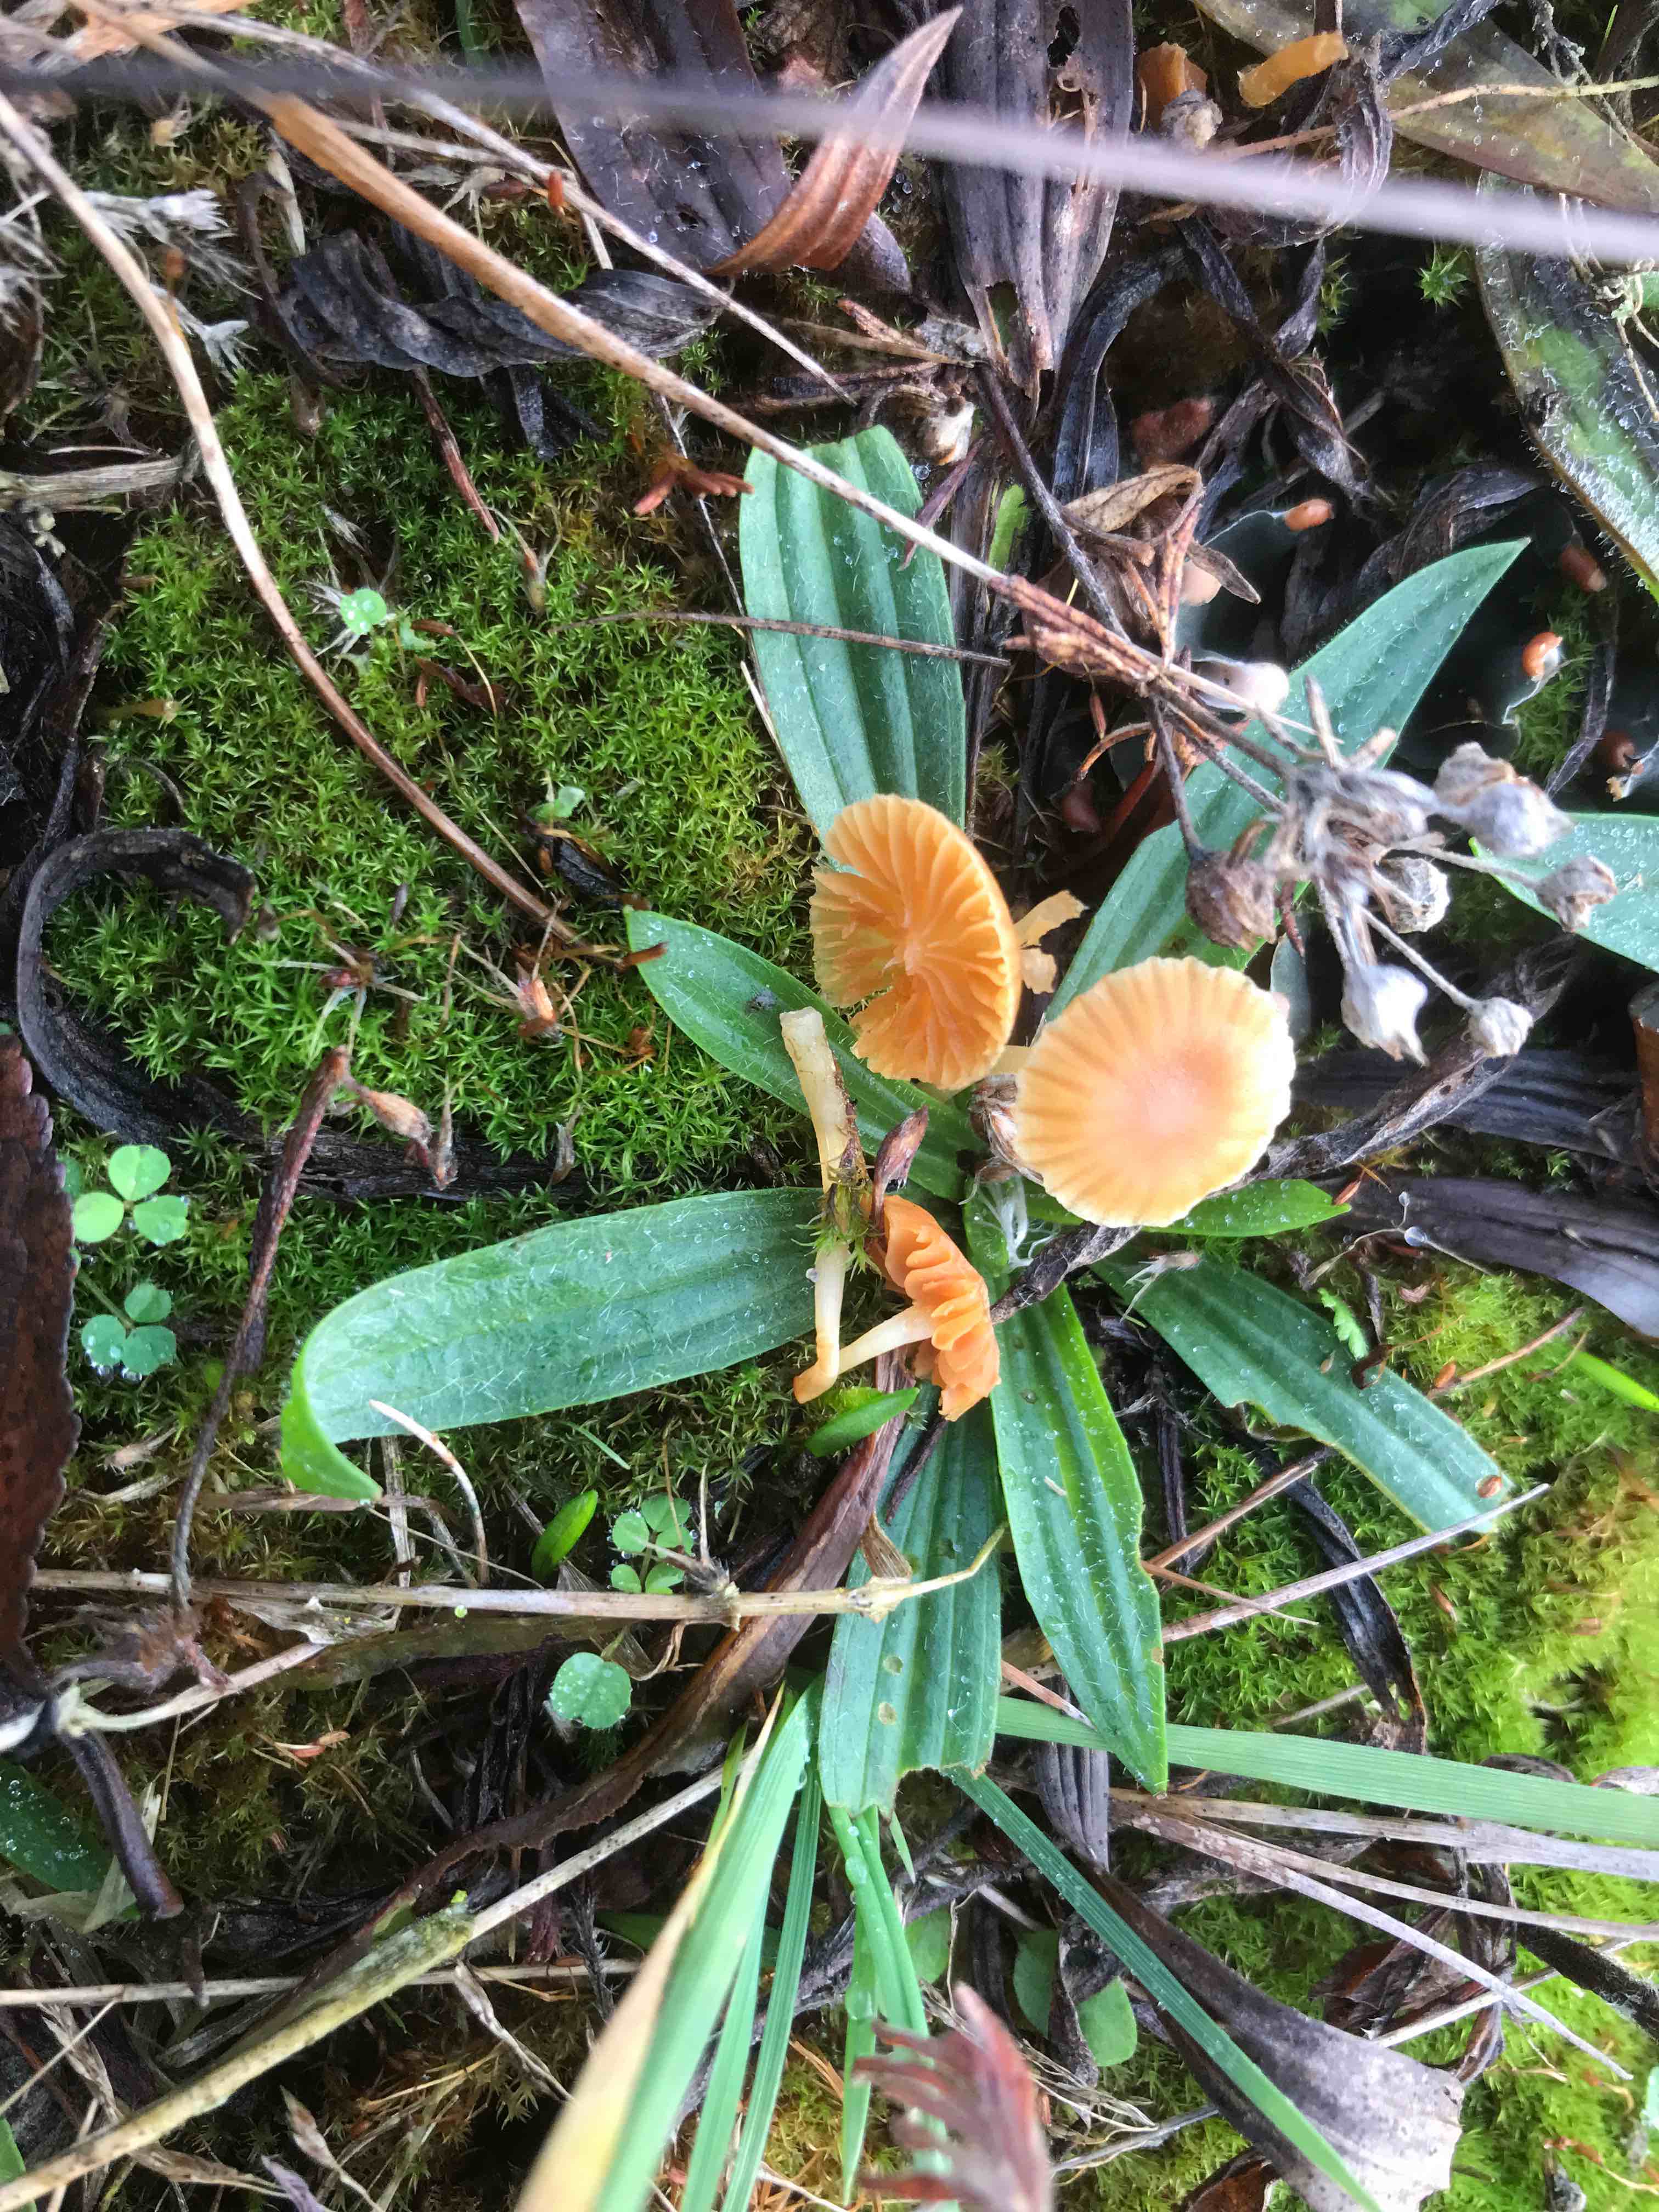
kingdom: Fungi
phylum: Basidiomycota
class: Agaricomycetes
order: Agaricales
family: Hymenogastraceae
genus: Galerina
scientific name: Galerina
